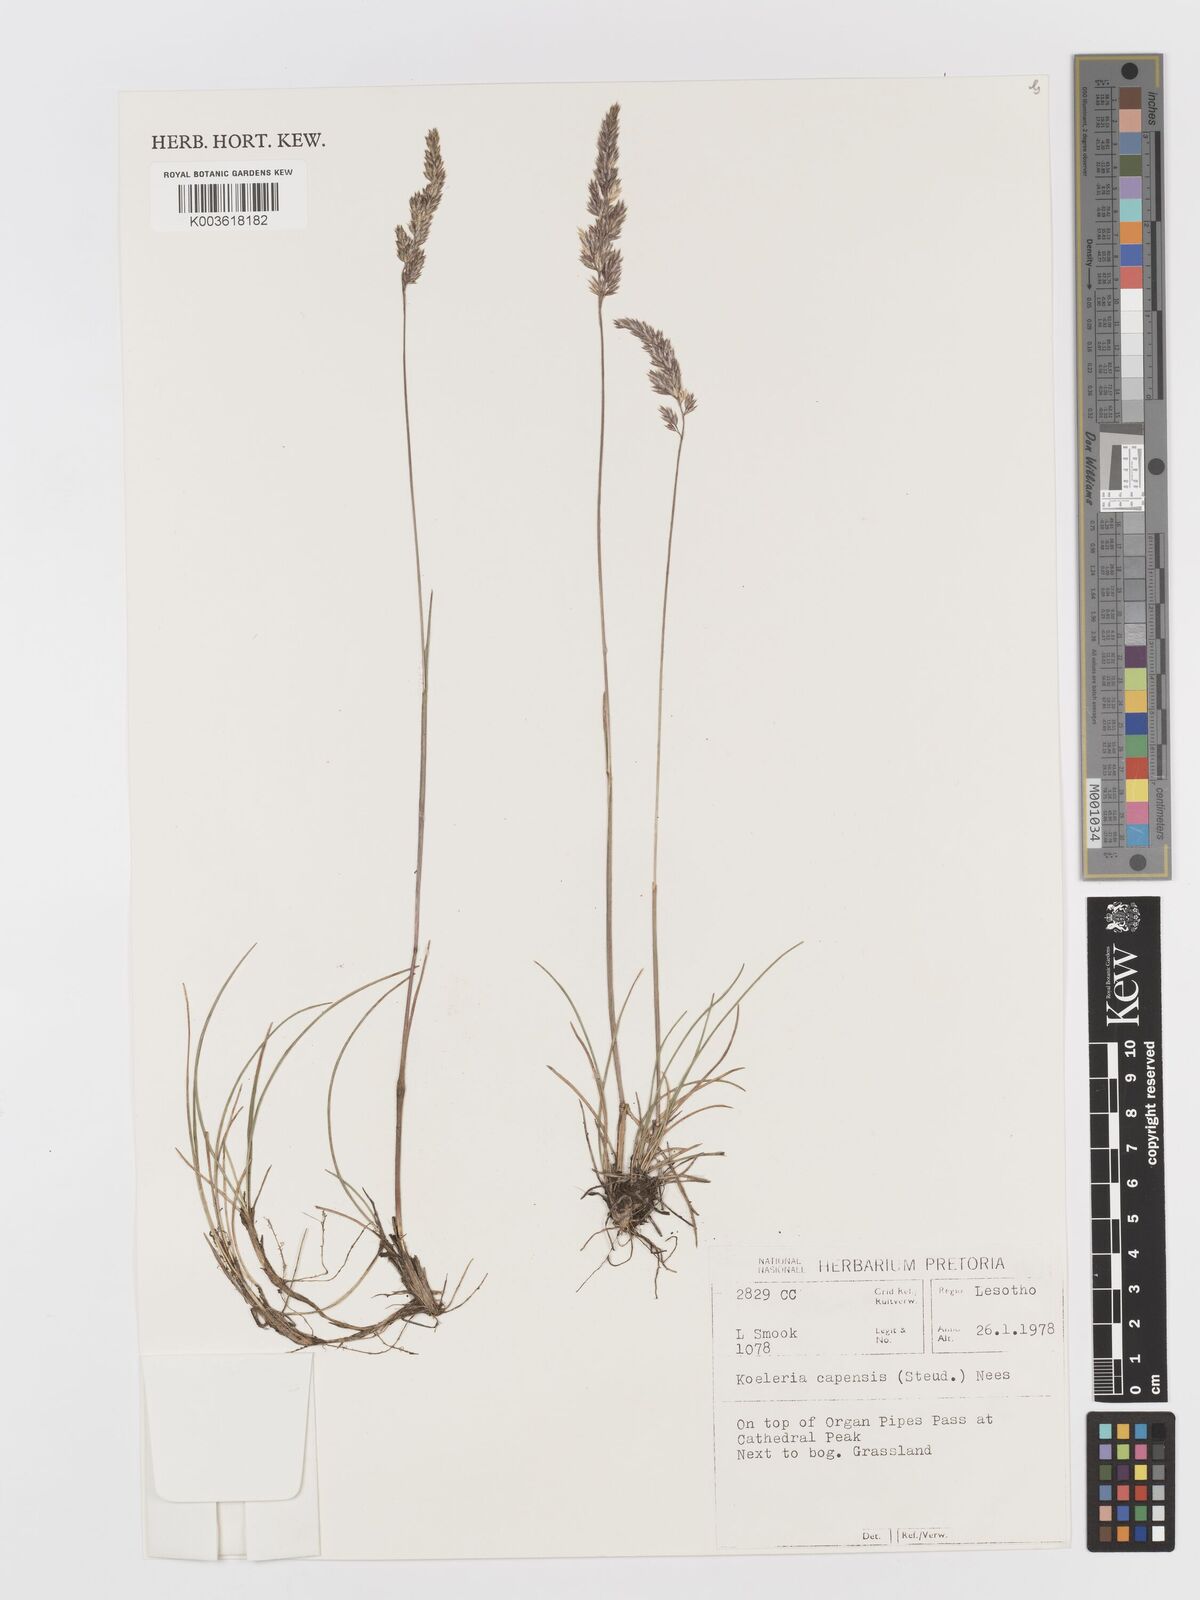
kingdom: Plantae
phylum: Tracheophyta
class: Liliopsida
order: Poales
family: Poaceae
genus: Koeleria
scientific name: Koeleria capensis
